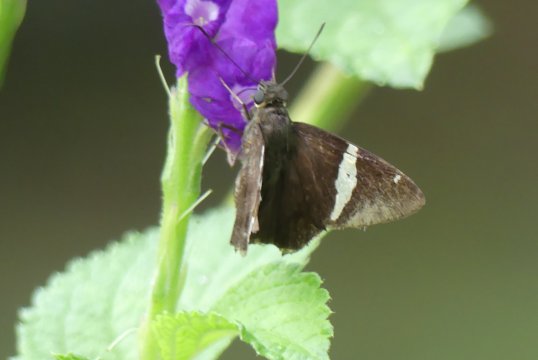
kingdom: Animalia
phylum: Arthropoda
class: Insecta
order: Lepidoptera
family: Hesperiidae
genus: Autochton
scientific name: Autochton longipennis
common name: Spike Banded-Skipper
